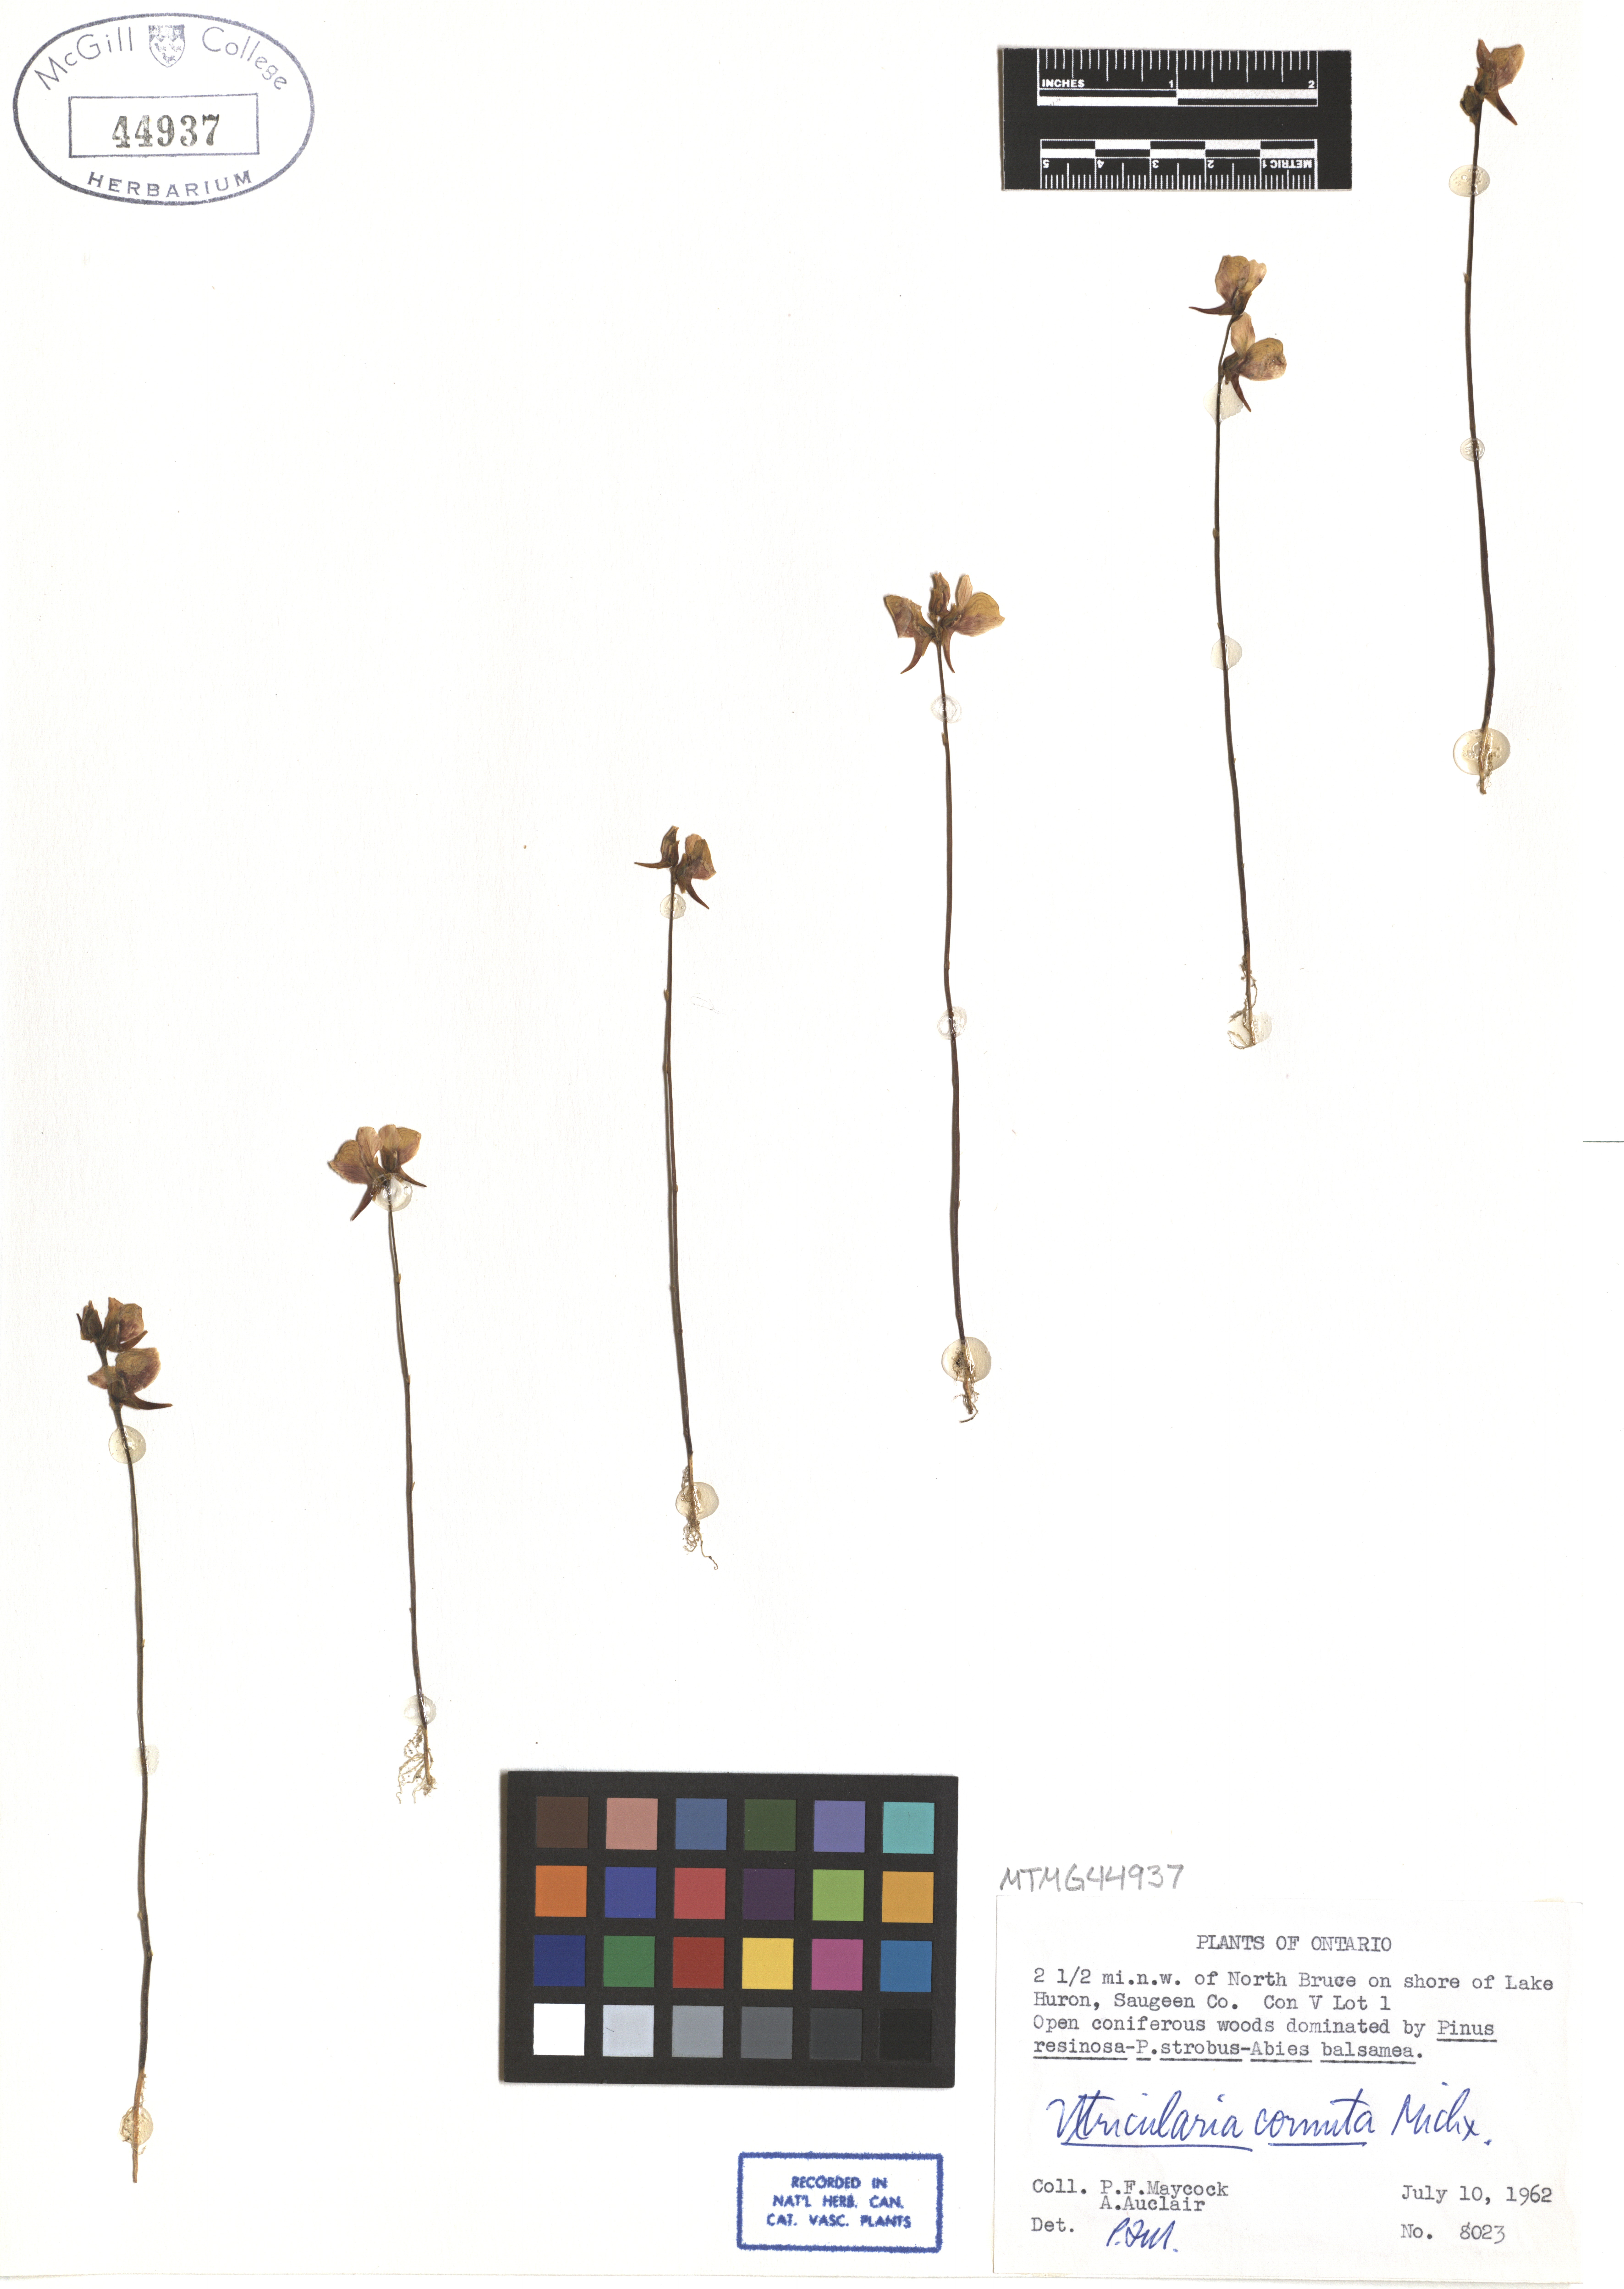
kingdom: Plantae
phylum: Tracheophyta
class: Magnoliopsida
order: Lamiales
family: Lentibulariaceae
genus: Utricularia
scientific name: Utricularia cornuta
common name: Horned bladderwort
